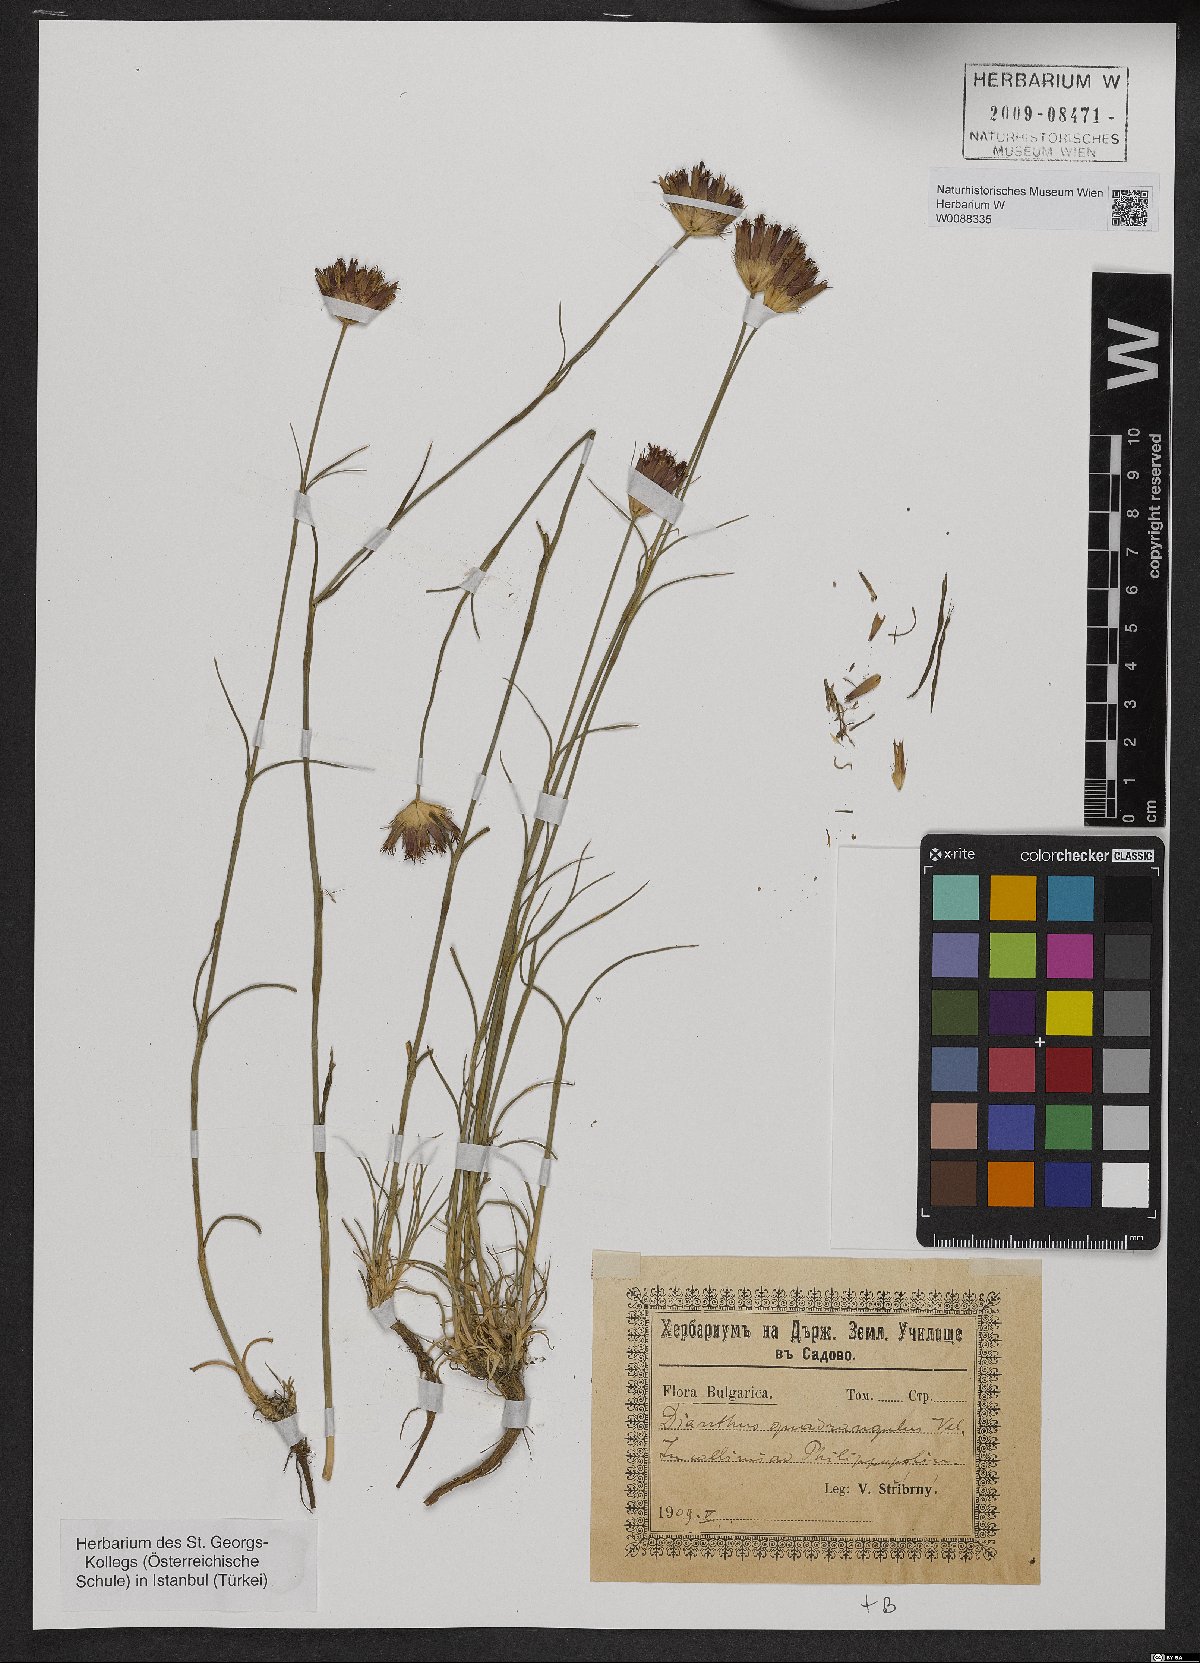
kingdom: Plantae
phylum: Tracheophyta
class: Magnoliopsida
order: Caryophyllales
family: Caryophyllaceae
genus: Dianthus
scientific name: Dianthus cruentus
